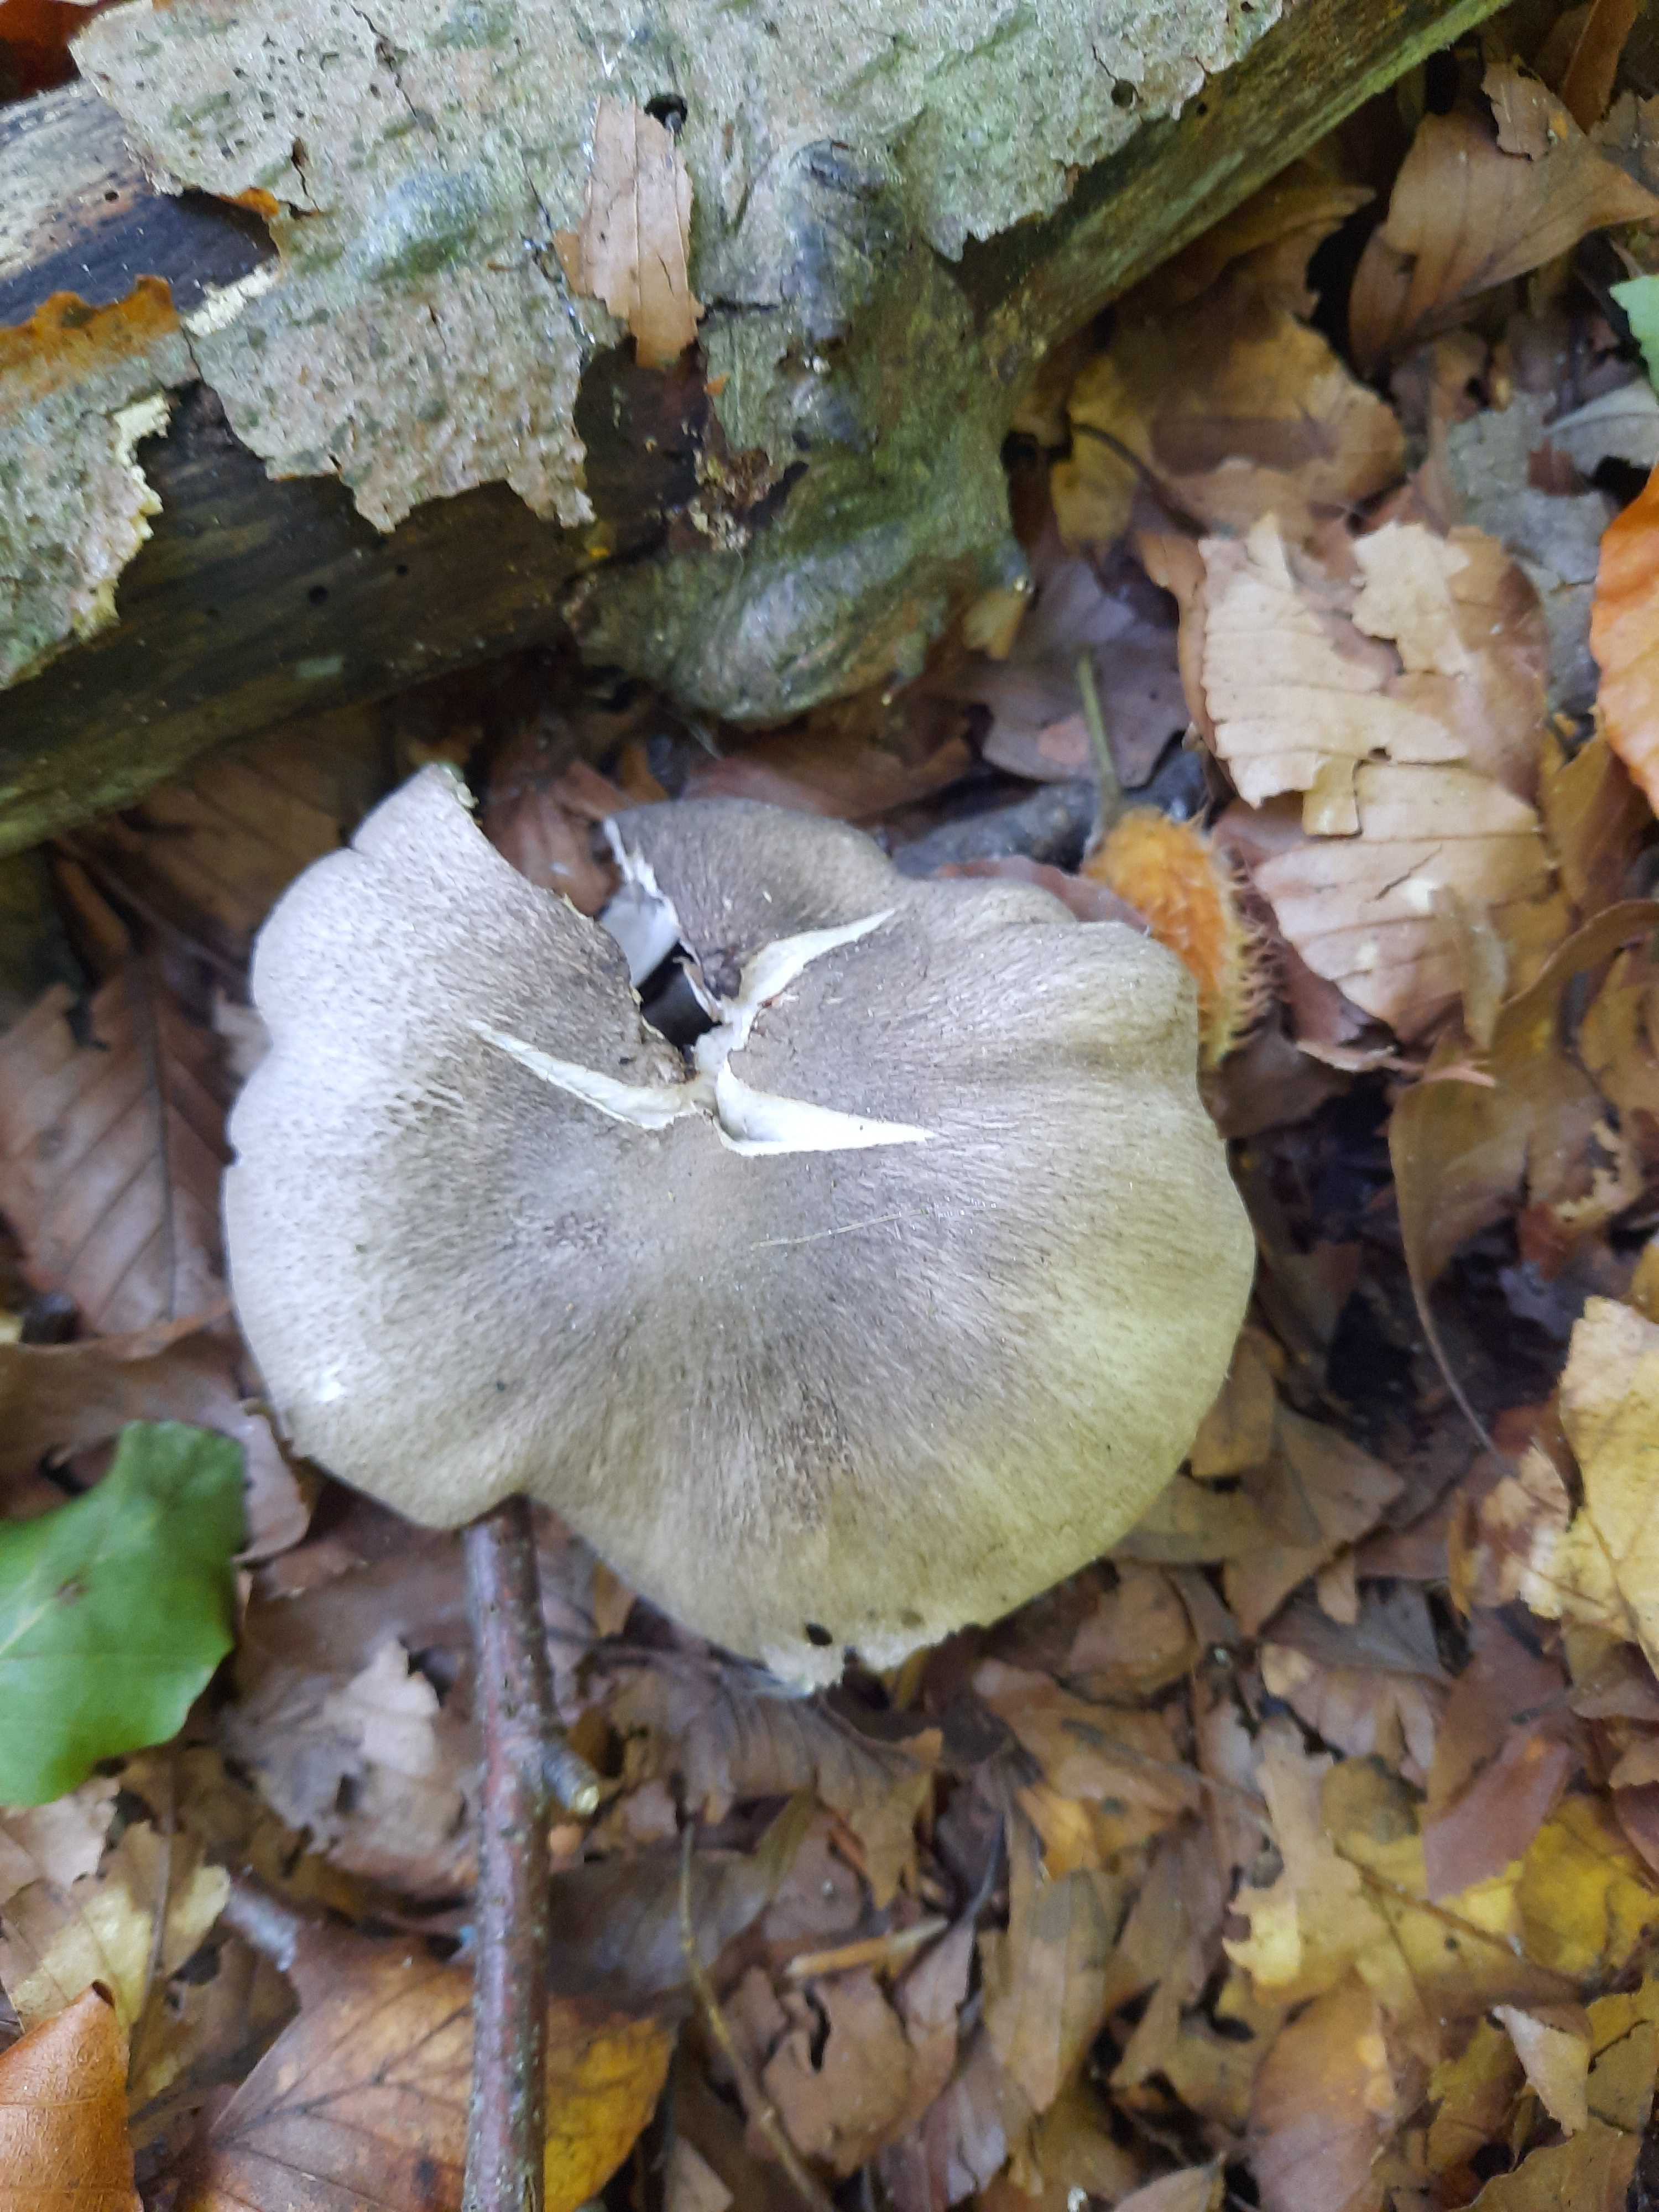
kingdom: Fungi
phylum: Basidiomycota
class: Agaricomycetes
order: Agaricales
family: Tricholomataceae
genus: Tricholoma
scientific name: Tricholoma
